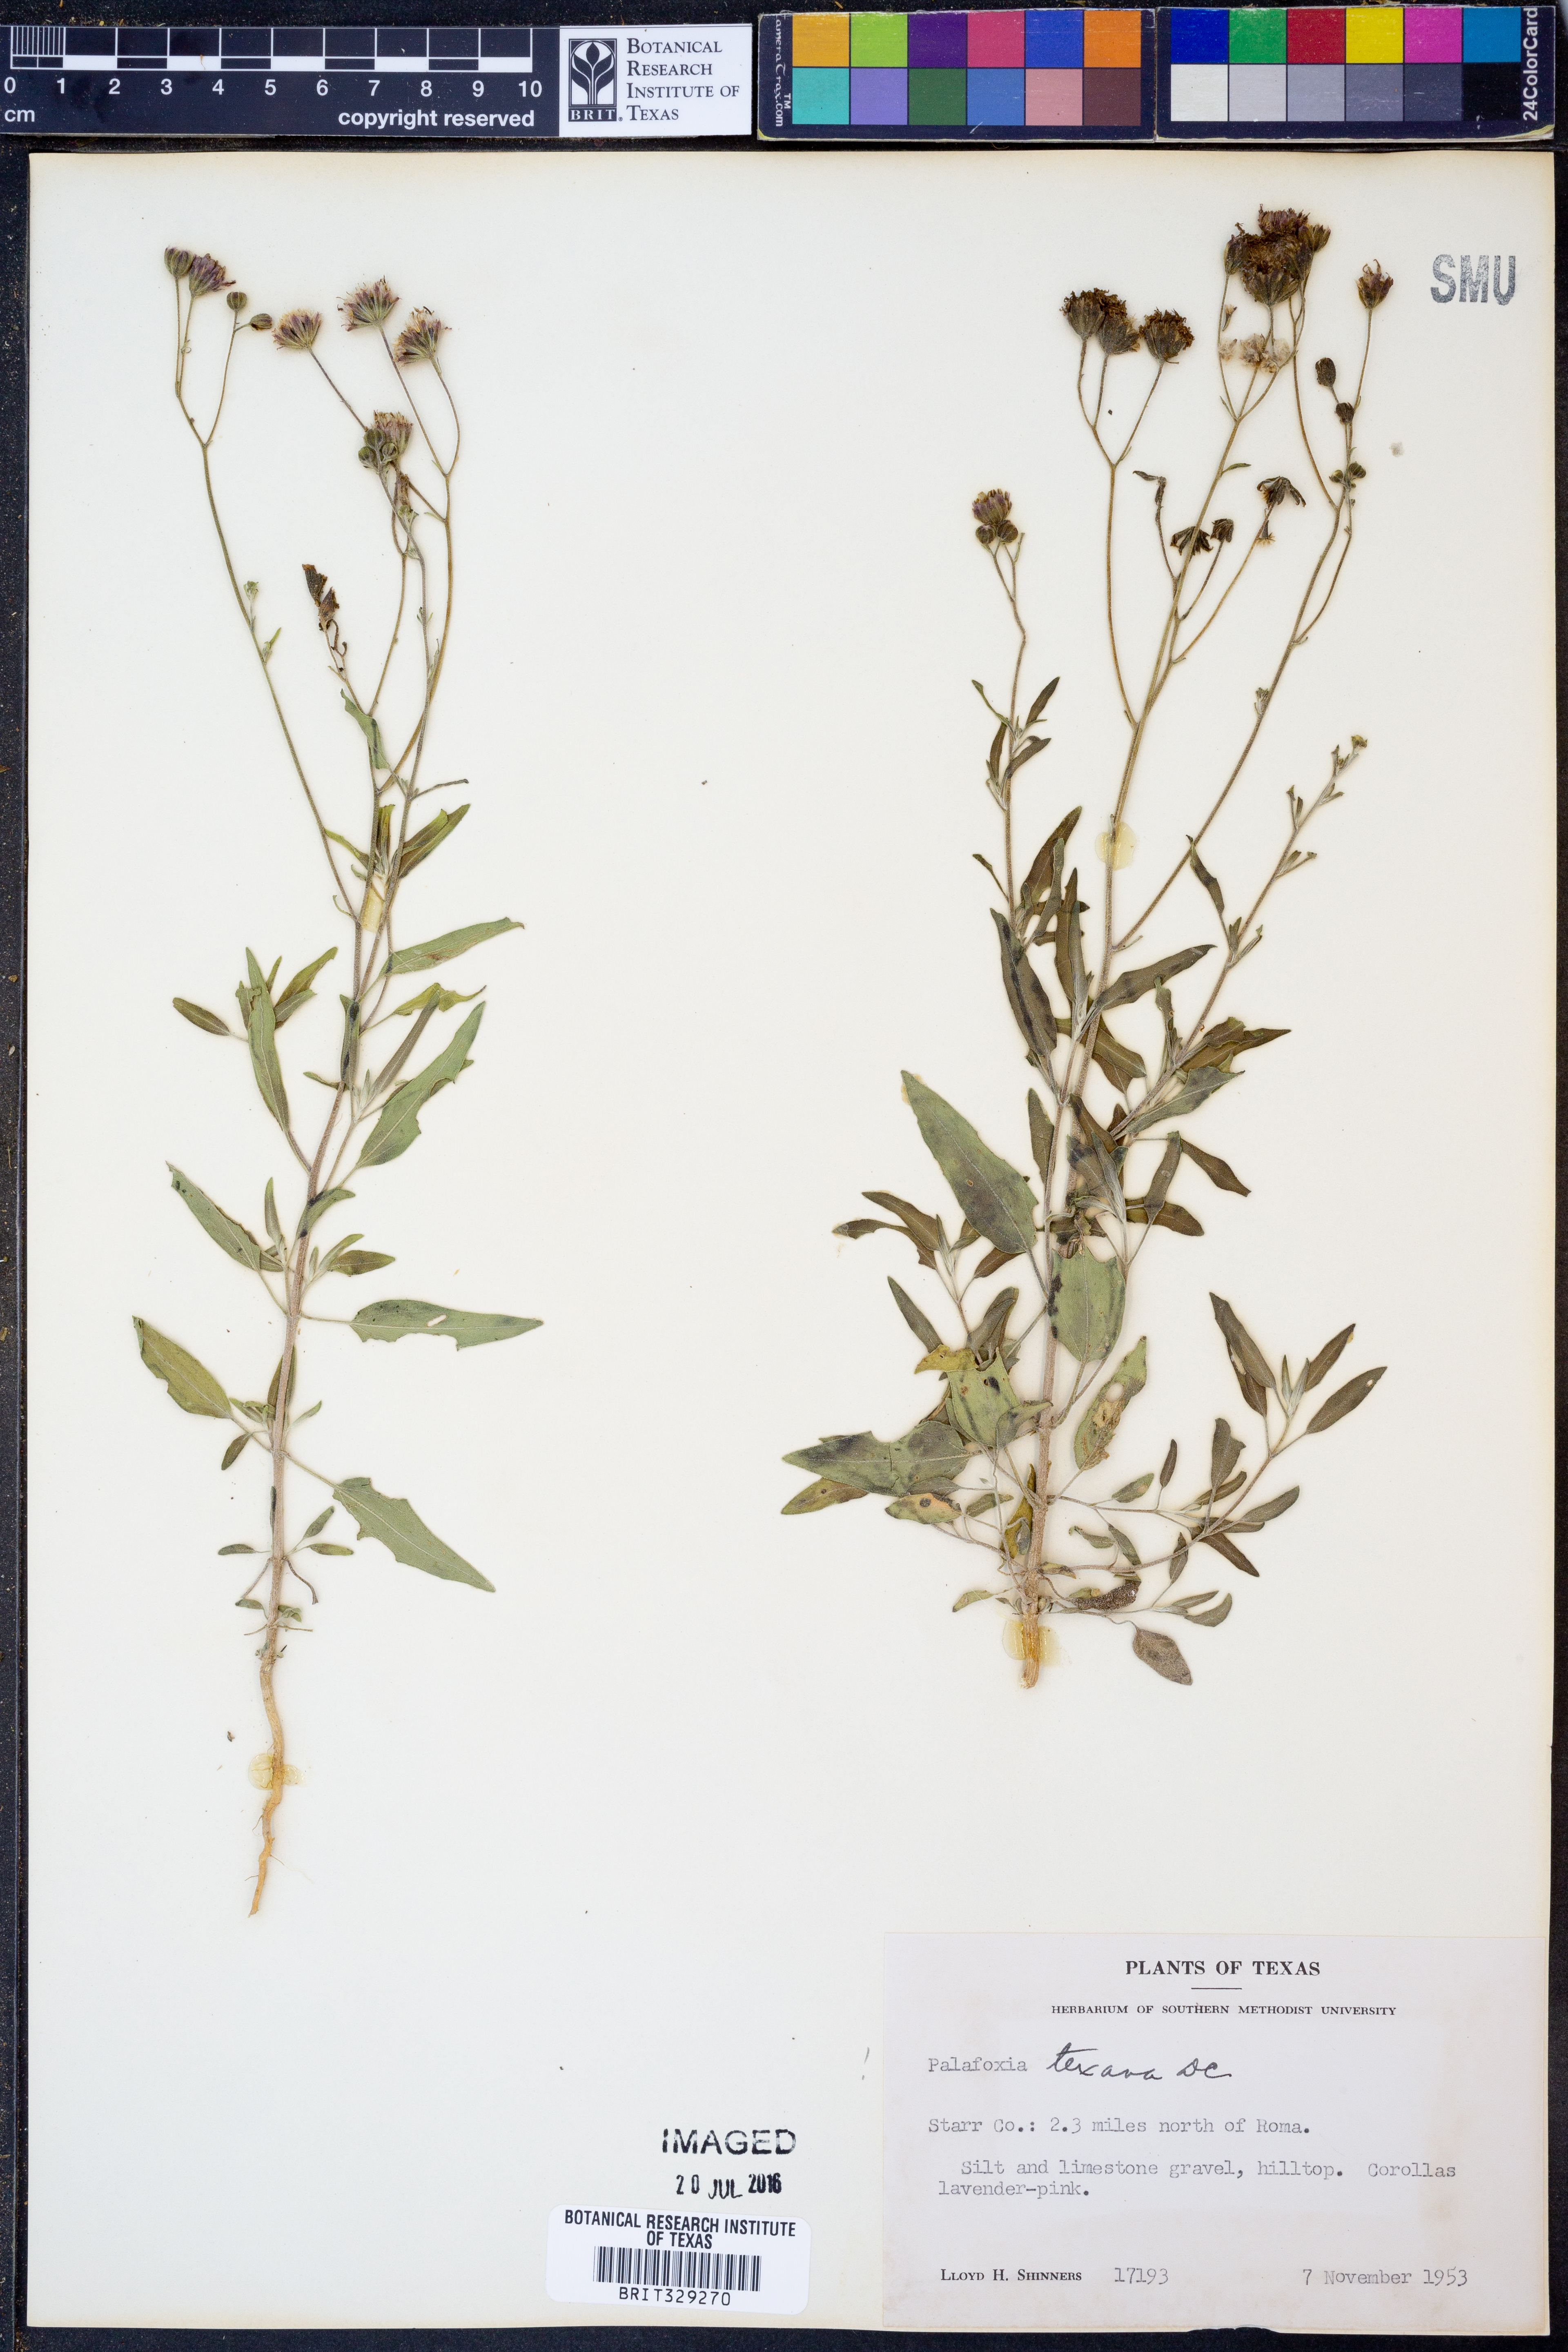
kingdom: Plantae
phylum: Tracheophyta
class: Magnoliopsida
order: Asterales
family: Asteraceae
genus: Palafoxia
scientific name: Palafoxia texana
